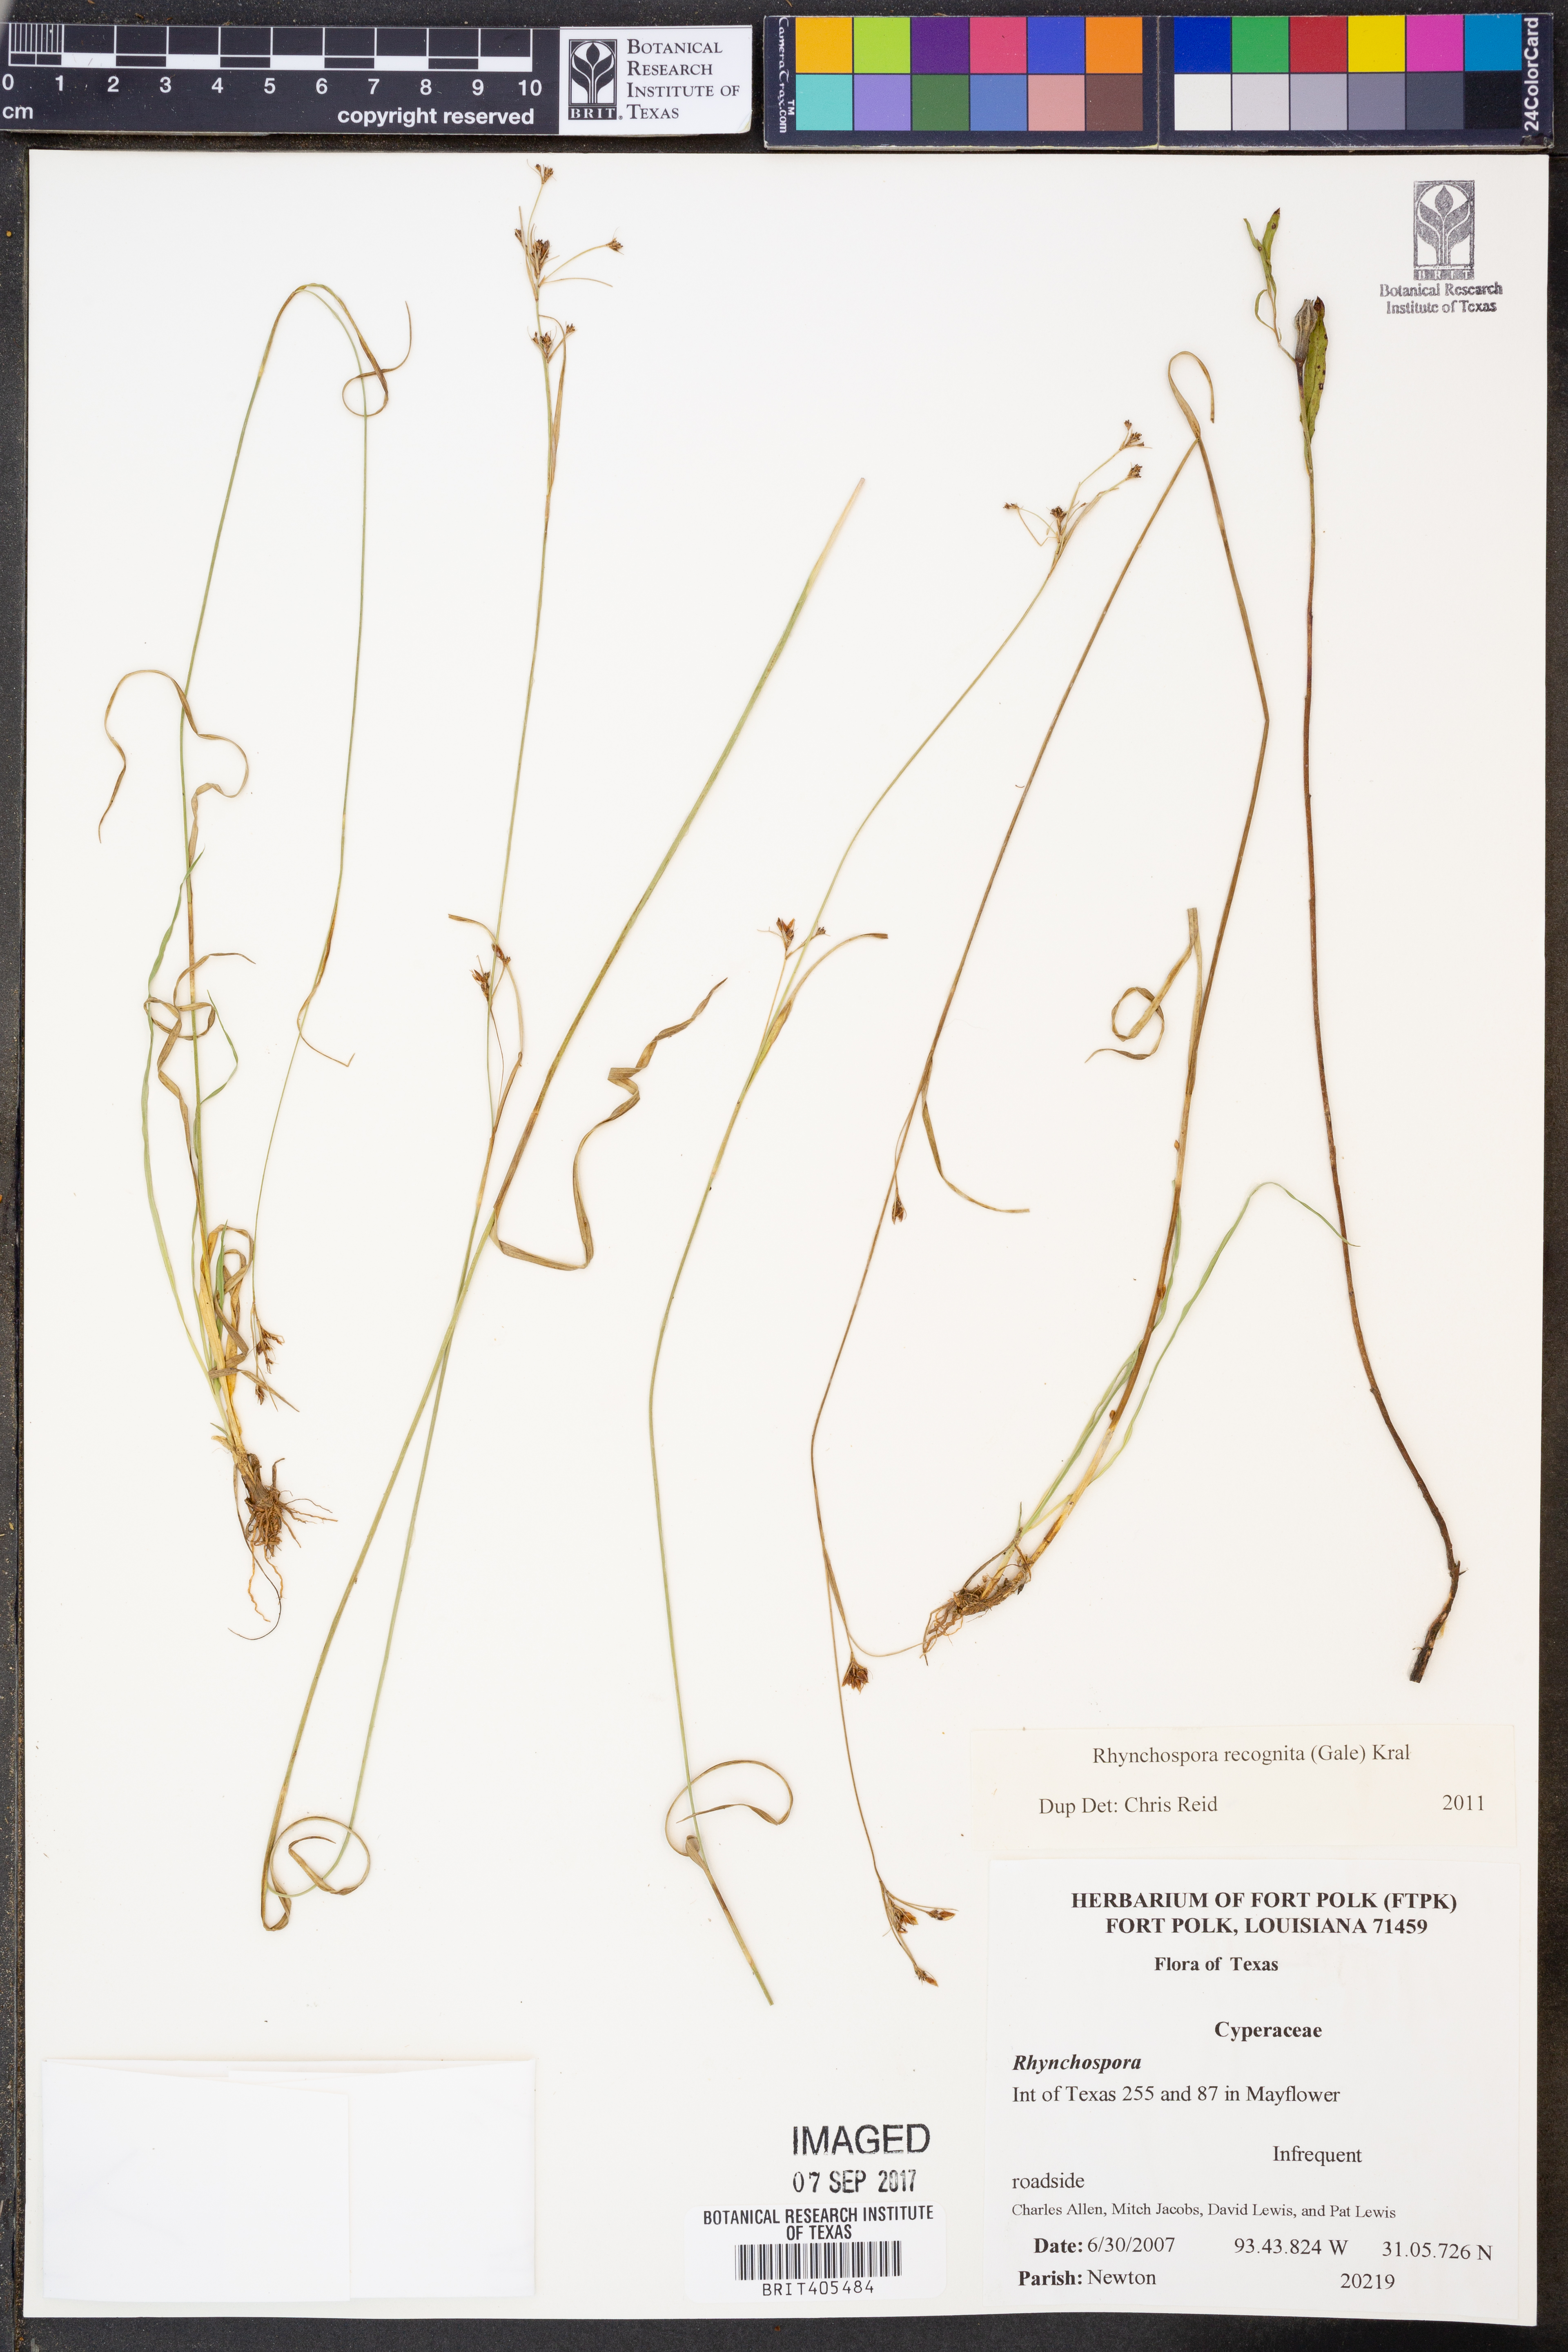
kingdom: Plantae
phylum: Tracheophyta
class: Liliopsida
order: Poales
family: Cyperaceae
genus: Rhynchospora
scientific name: Rhynchospora recognita
